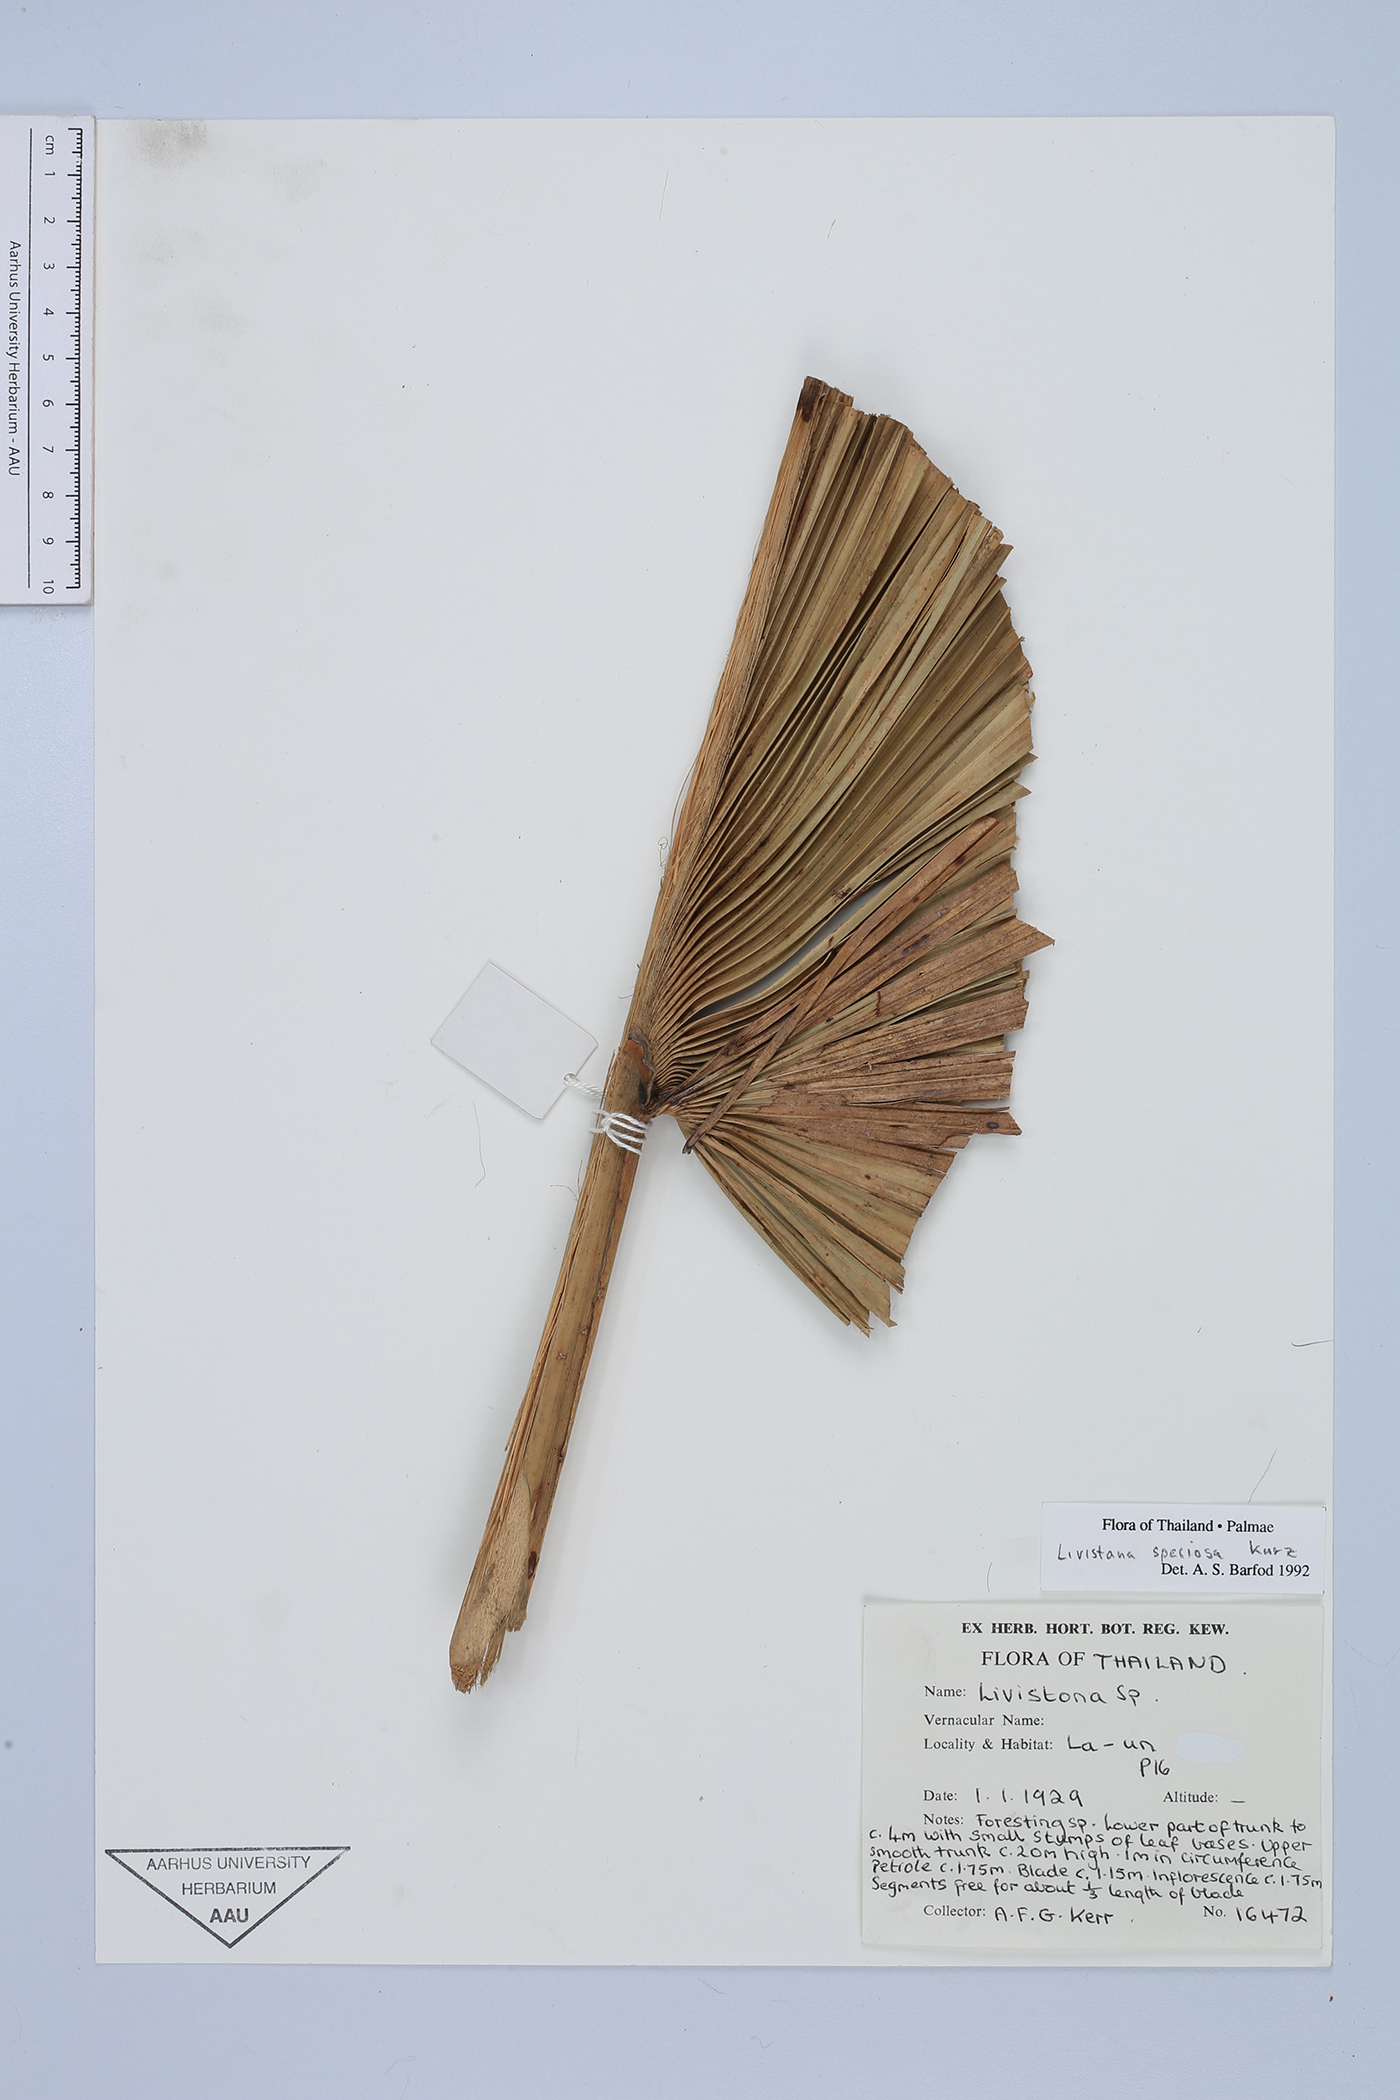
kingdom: Plantae
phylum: Tracheophyta
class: Liliopsida
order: Arecales
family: Arecaceae
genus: Livistona
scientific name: Livistona speciosa
